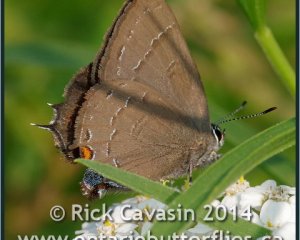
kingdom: Animalia
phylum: Arthropoda
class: Insecta
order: Lepidoptera
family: Lycaenidae
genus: Satyrium
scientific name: Satyrium calanus
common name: Banded Hairstreak
